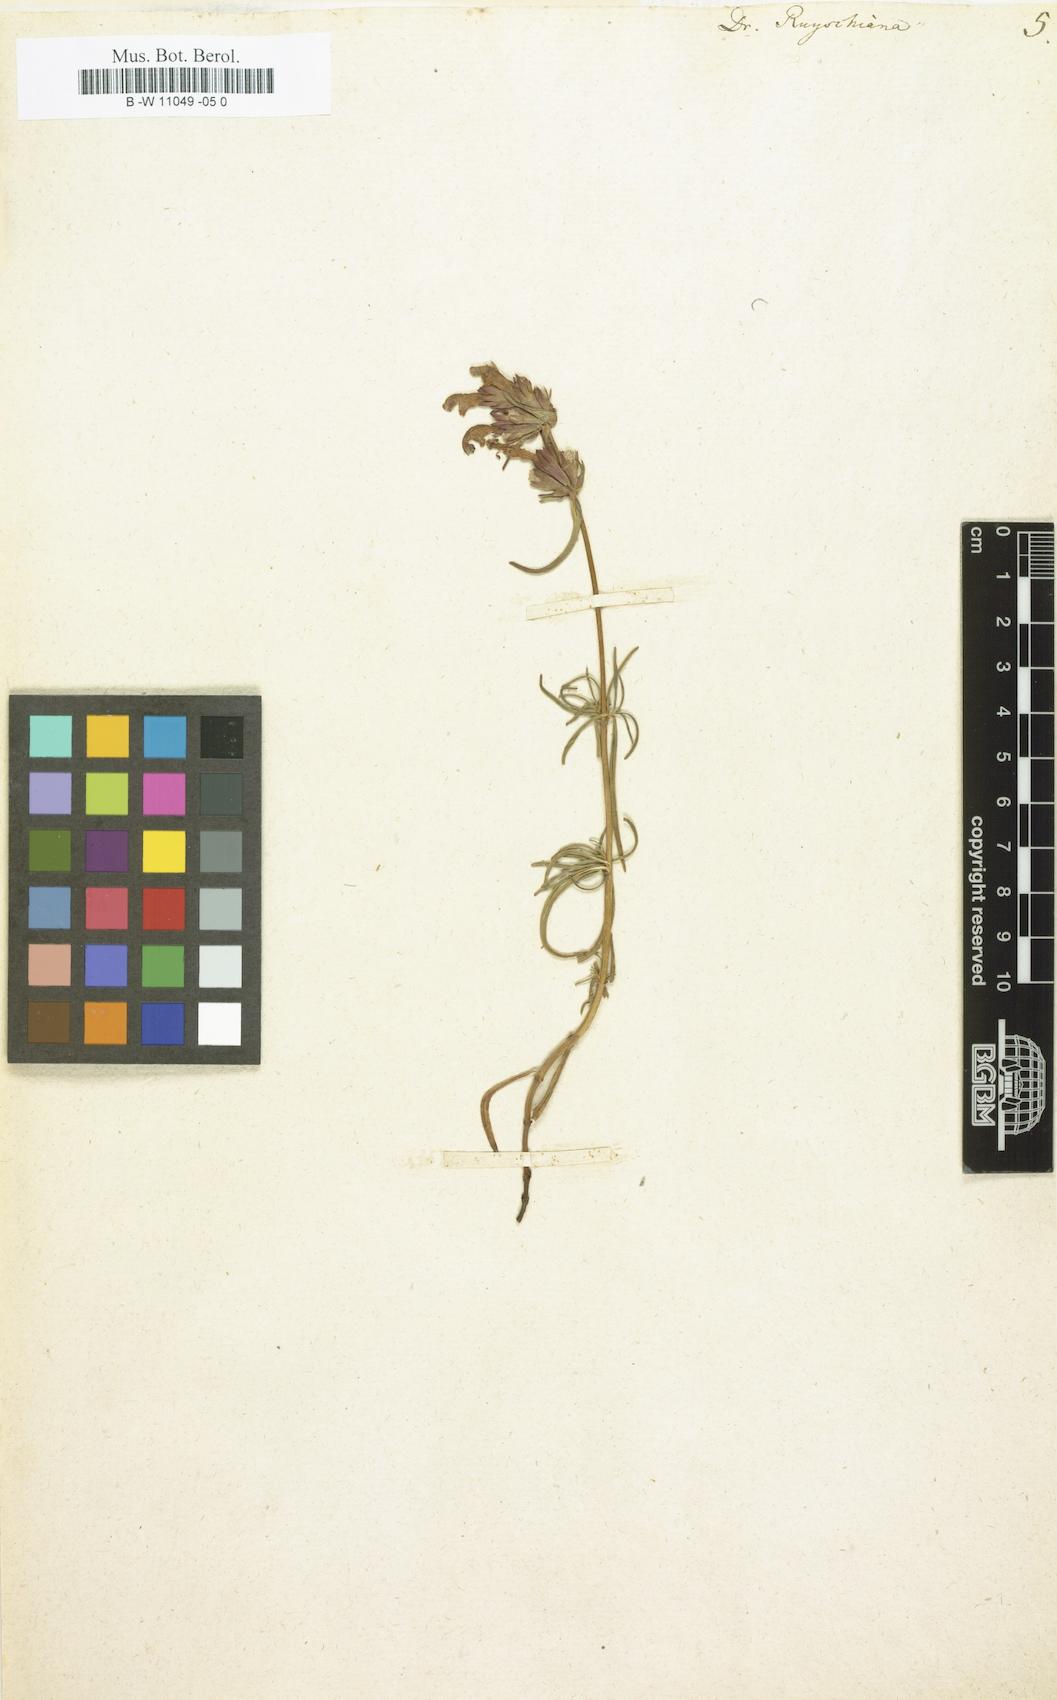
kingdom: Plantae
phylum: Tracheophyta
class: Magnoliopsida
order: Lamiales
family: Lamiaceae
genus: Dracocephalum
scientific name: Dracocephalum ruyschiana
